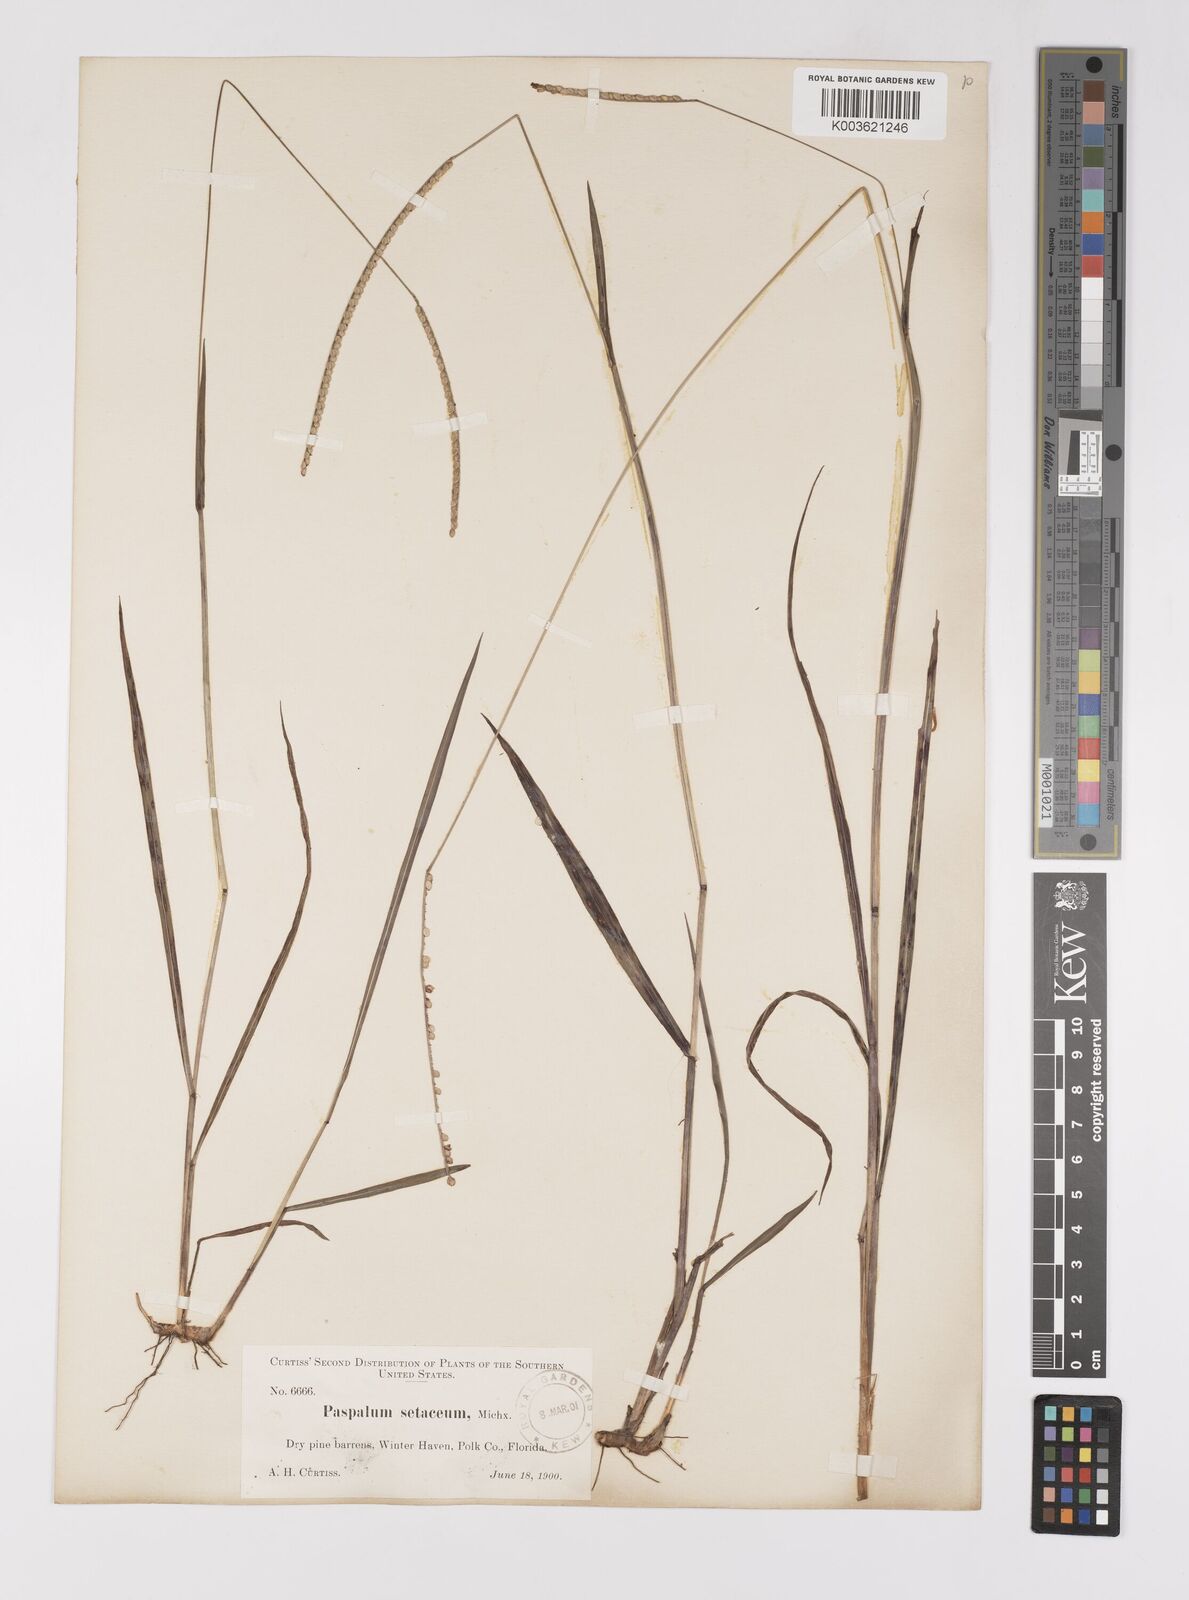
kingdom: Plantae
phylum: Tracheophyta
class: Liliopsida
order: Poales
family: Poaceae
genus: Paspalum
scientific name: Paspalum setaceum
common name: Slender paspalum
